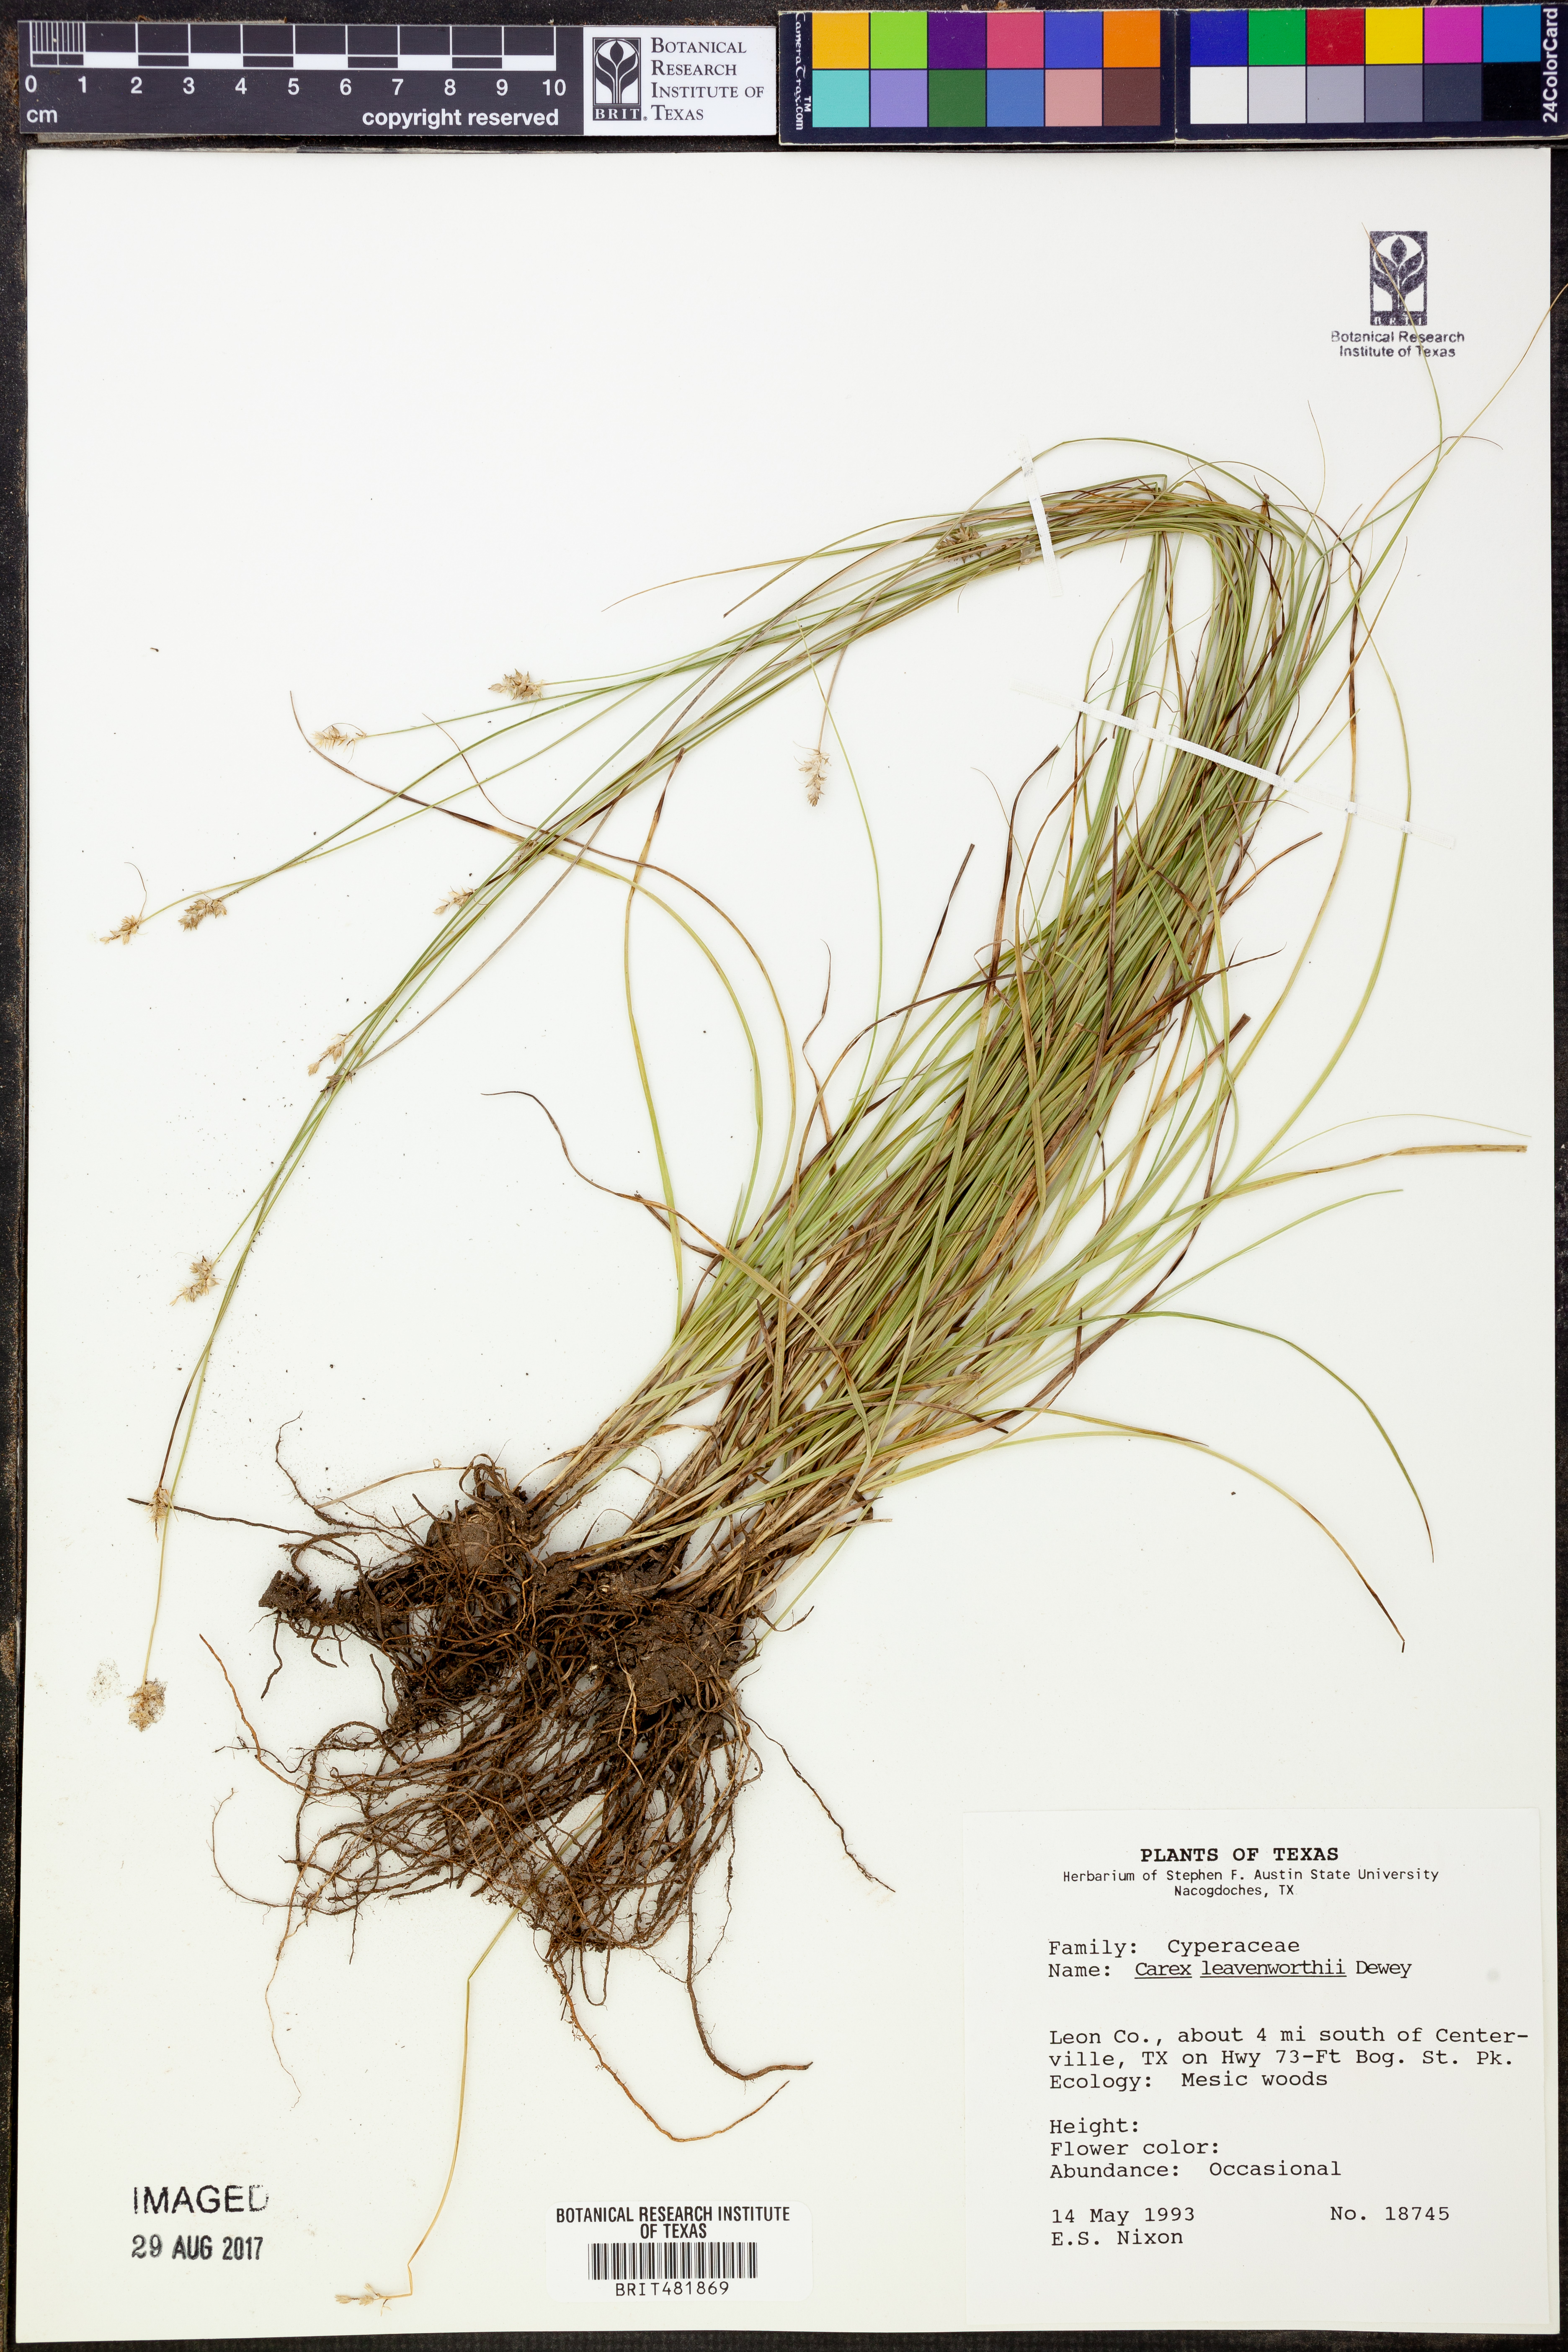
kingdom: Plantae
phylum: Tracheophyta
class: Liliopsida
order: Poales
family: Cyperaceae
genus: Carex
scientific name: Carex leavenworthii
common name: Leavenworth's bracted sedge
